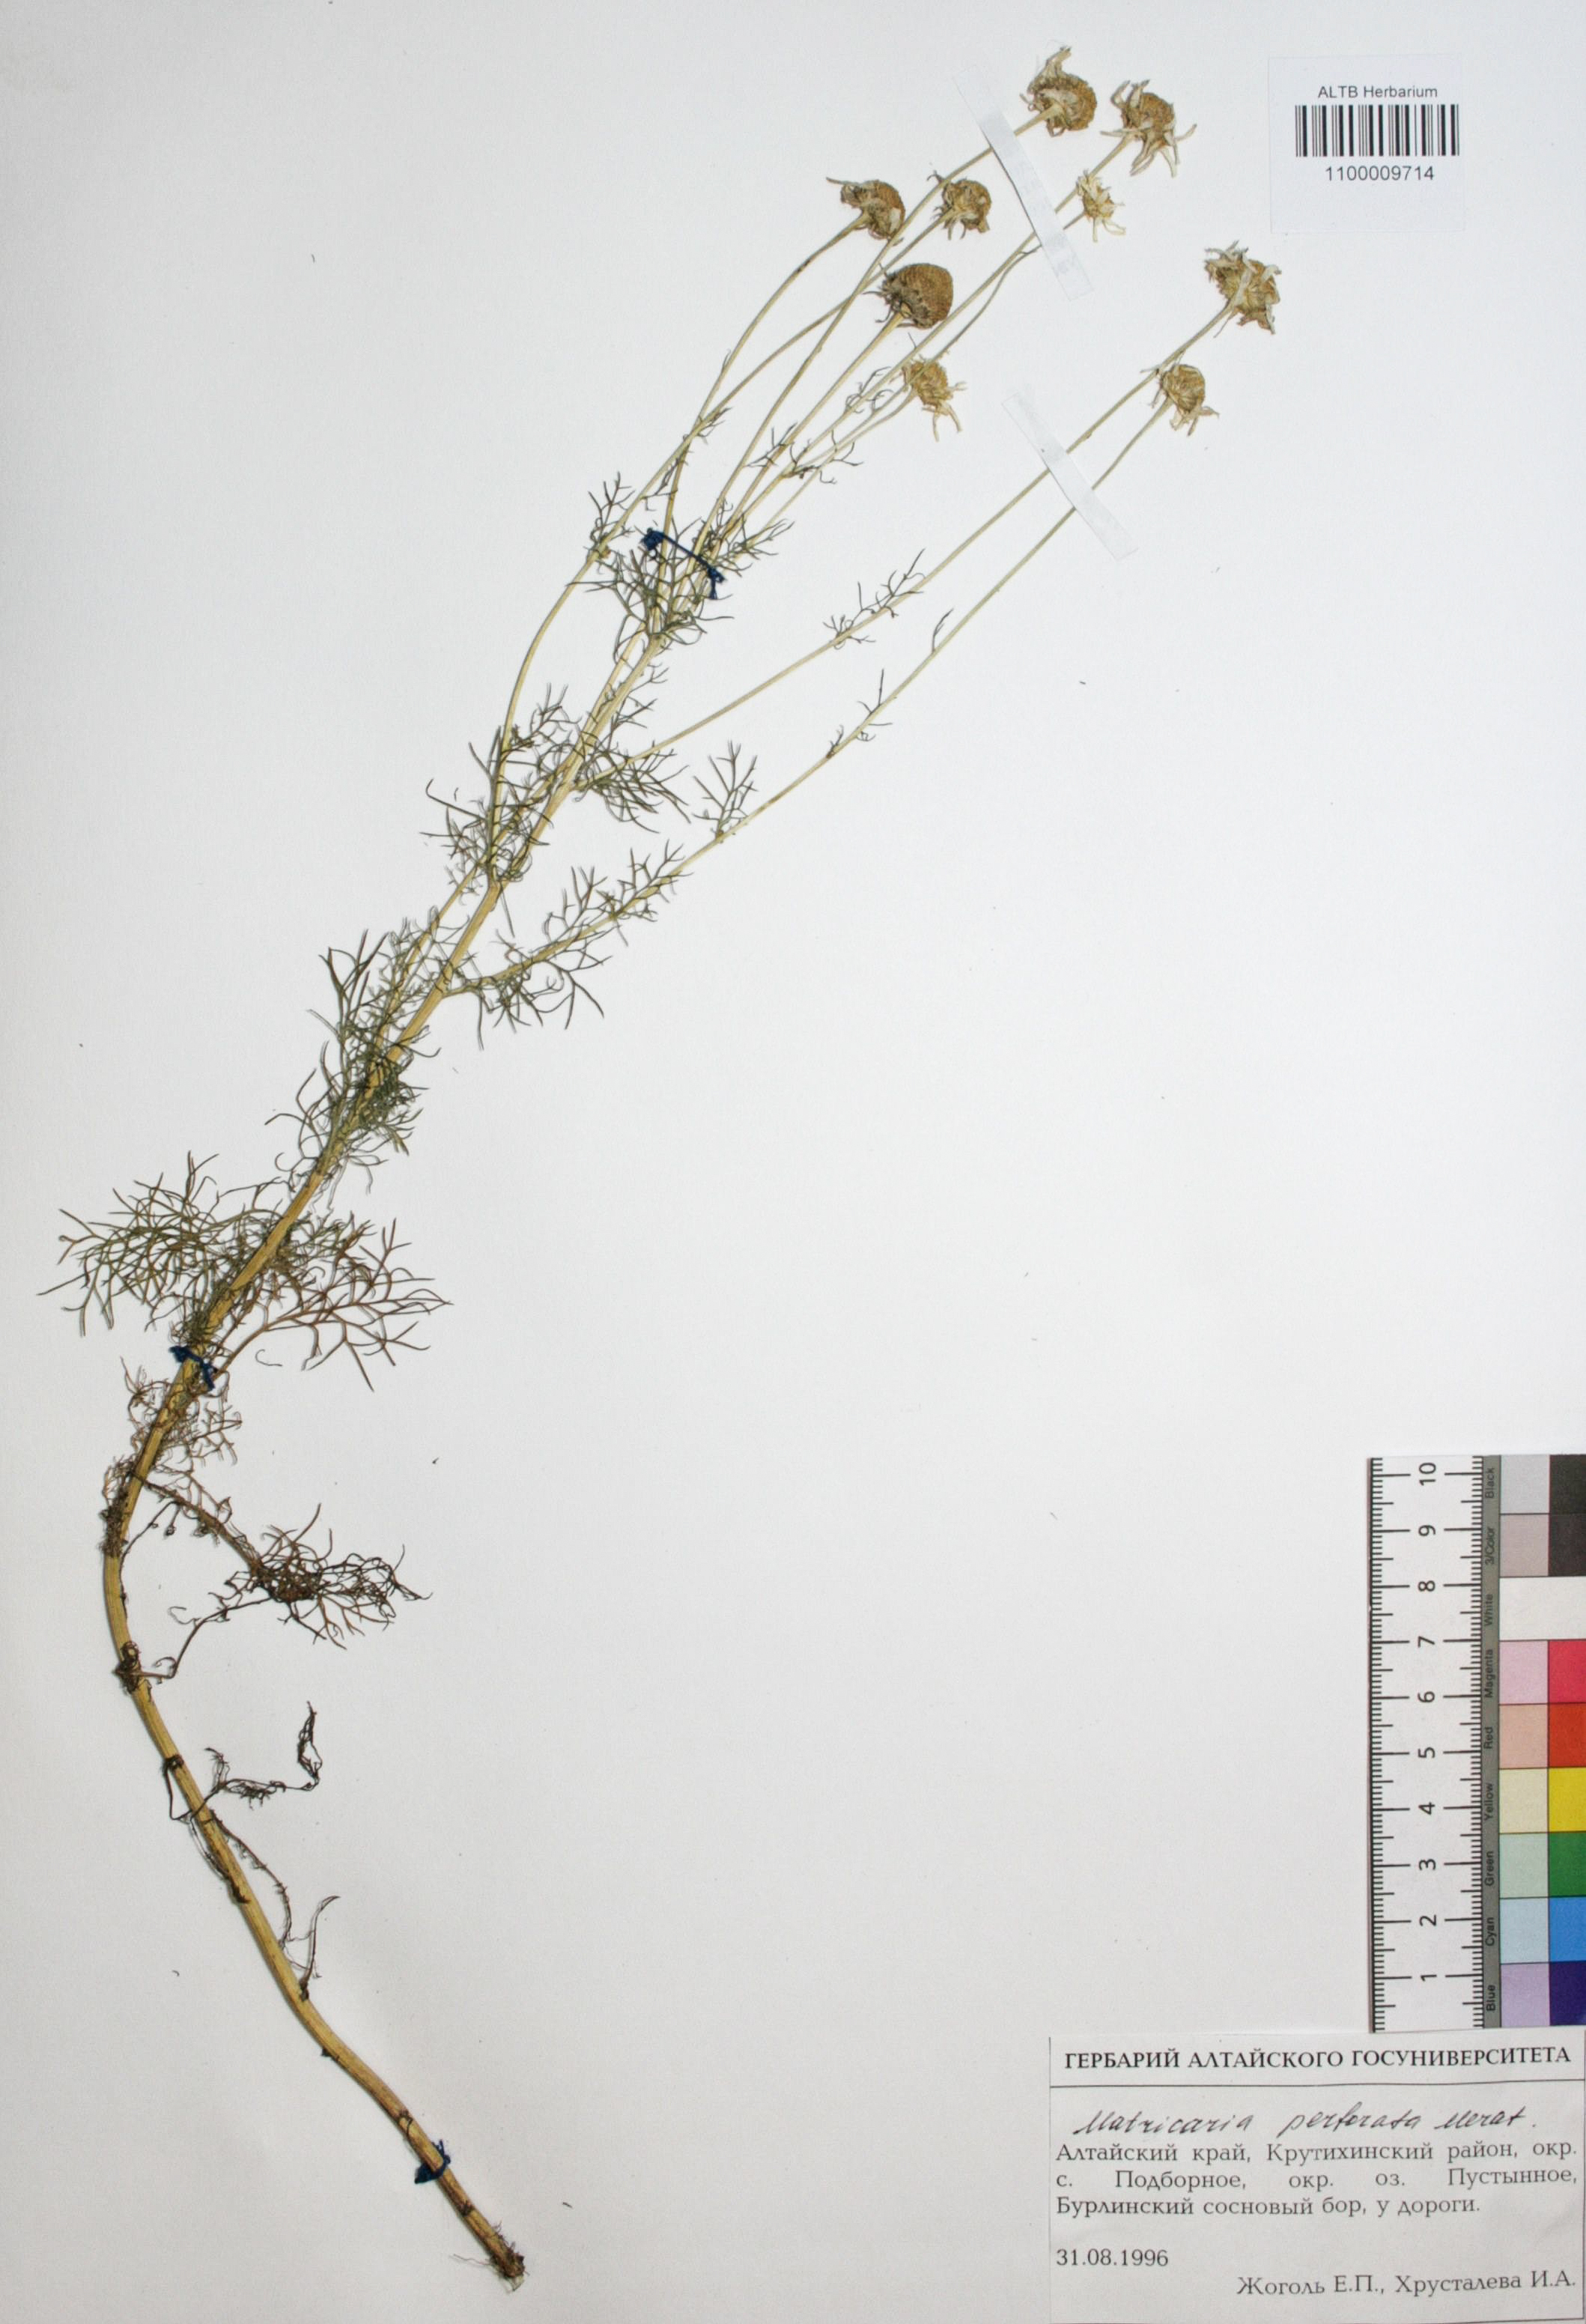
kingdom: Plantae
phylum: Tracheophyta
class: Magnoliopsida
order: Asterales
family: Asteraceae
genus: Tripleurospermum
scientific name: Tripleurospermum inodorum
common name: Scentless mayweed
